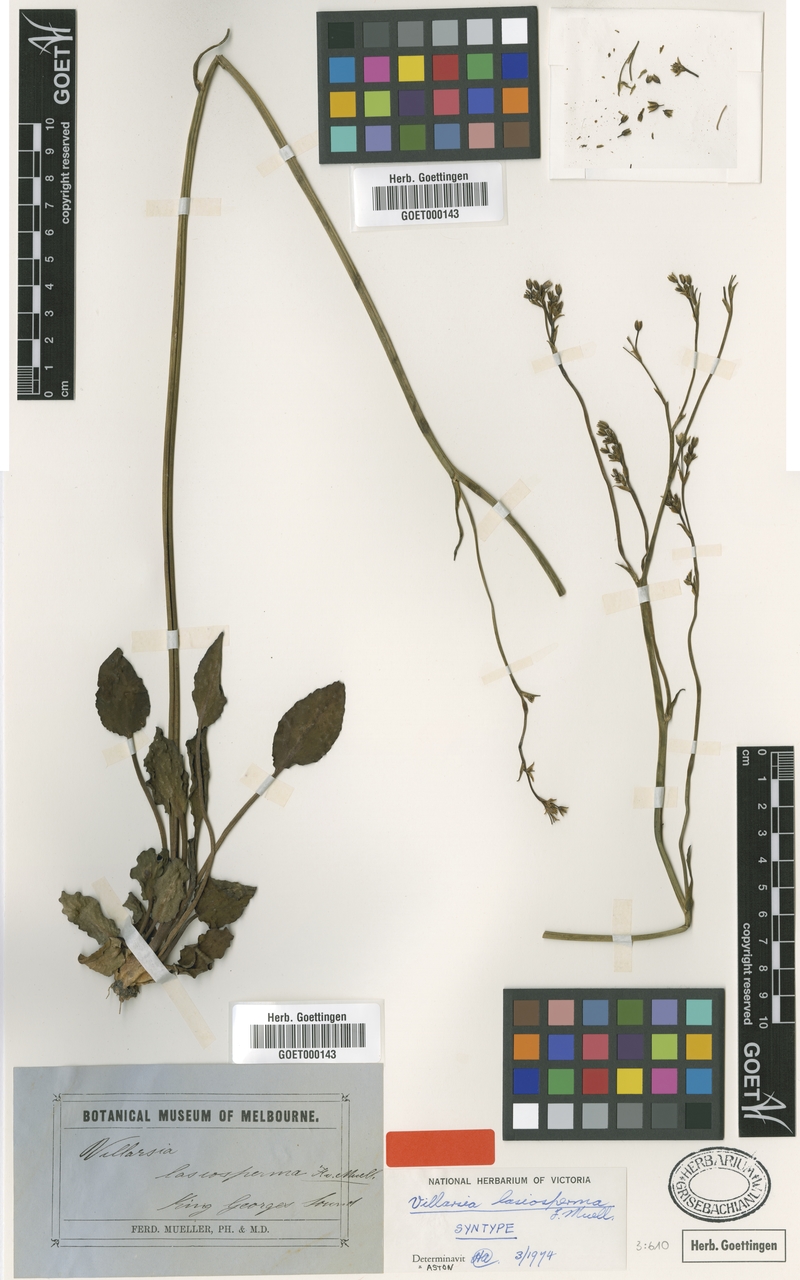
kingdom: Plantae
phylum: Tracheophyta
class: Magnoliopsida
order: Asterales
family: Menyanthaceae
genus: Liparophyllum
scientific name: Liparophyllum lasiospermum
